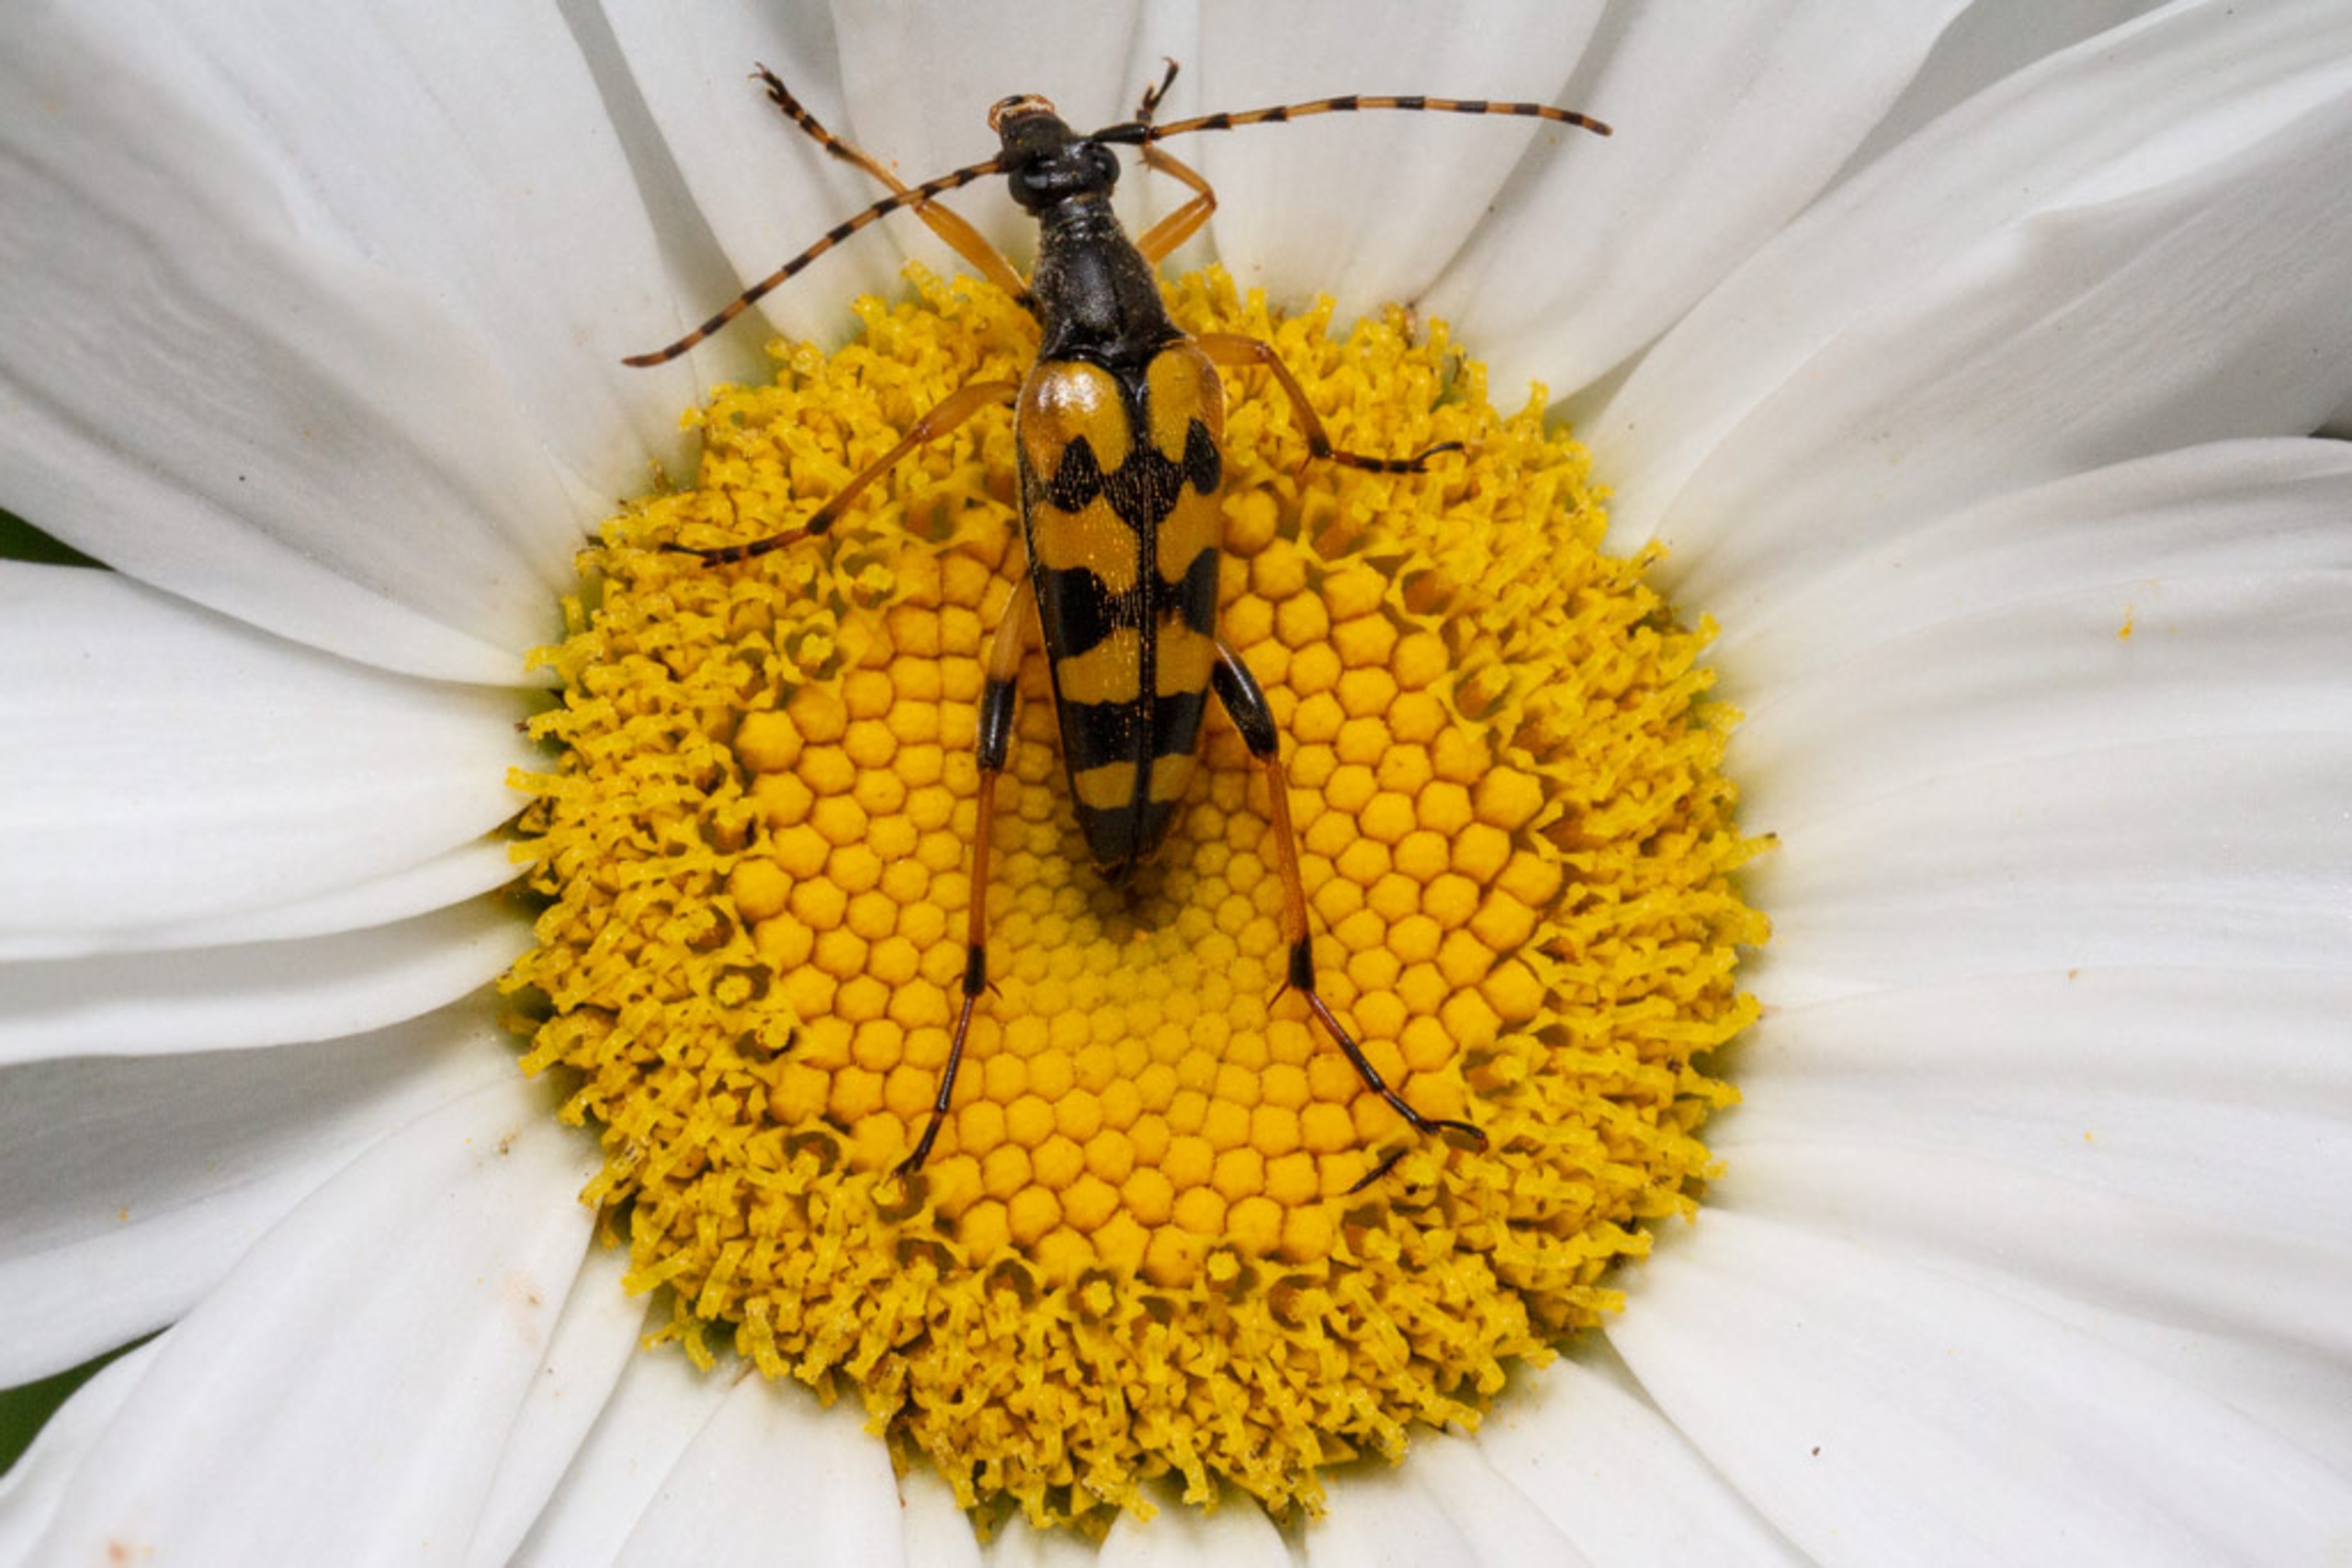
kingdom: Animalia
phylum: Arthropoda
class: Insecta
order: Coleoptera
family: Cerambycidae
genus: Rutpela
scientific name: Rutpela maculata
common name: Sydlig blomsterbuk
